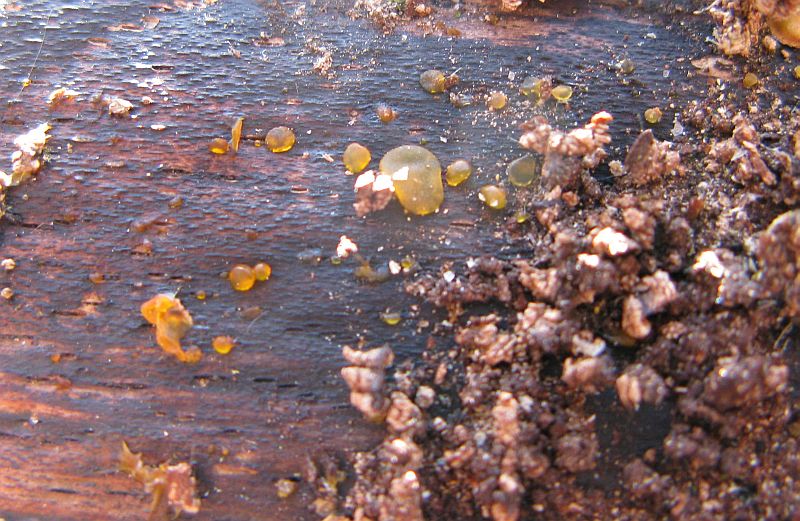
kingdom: Fungi
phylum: Basidiomycota
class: Dacrymycetes
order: Dacrymycetales
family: Dacrymycetaceae
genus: Dacrymyces
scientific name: Dacrymyces lacrymalis
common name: rynket tåresvamp
